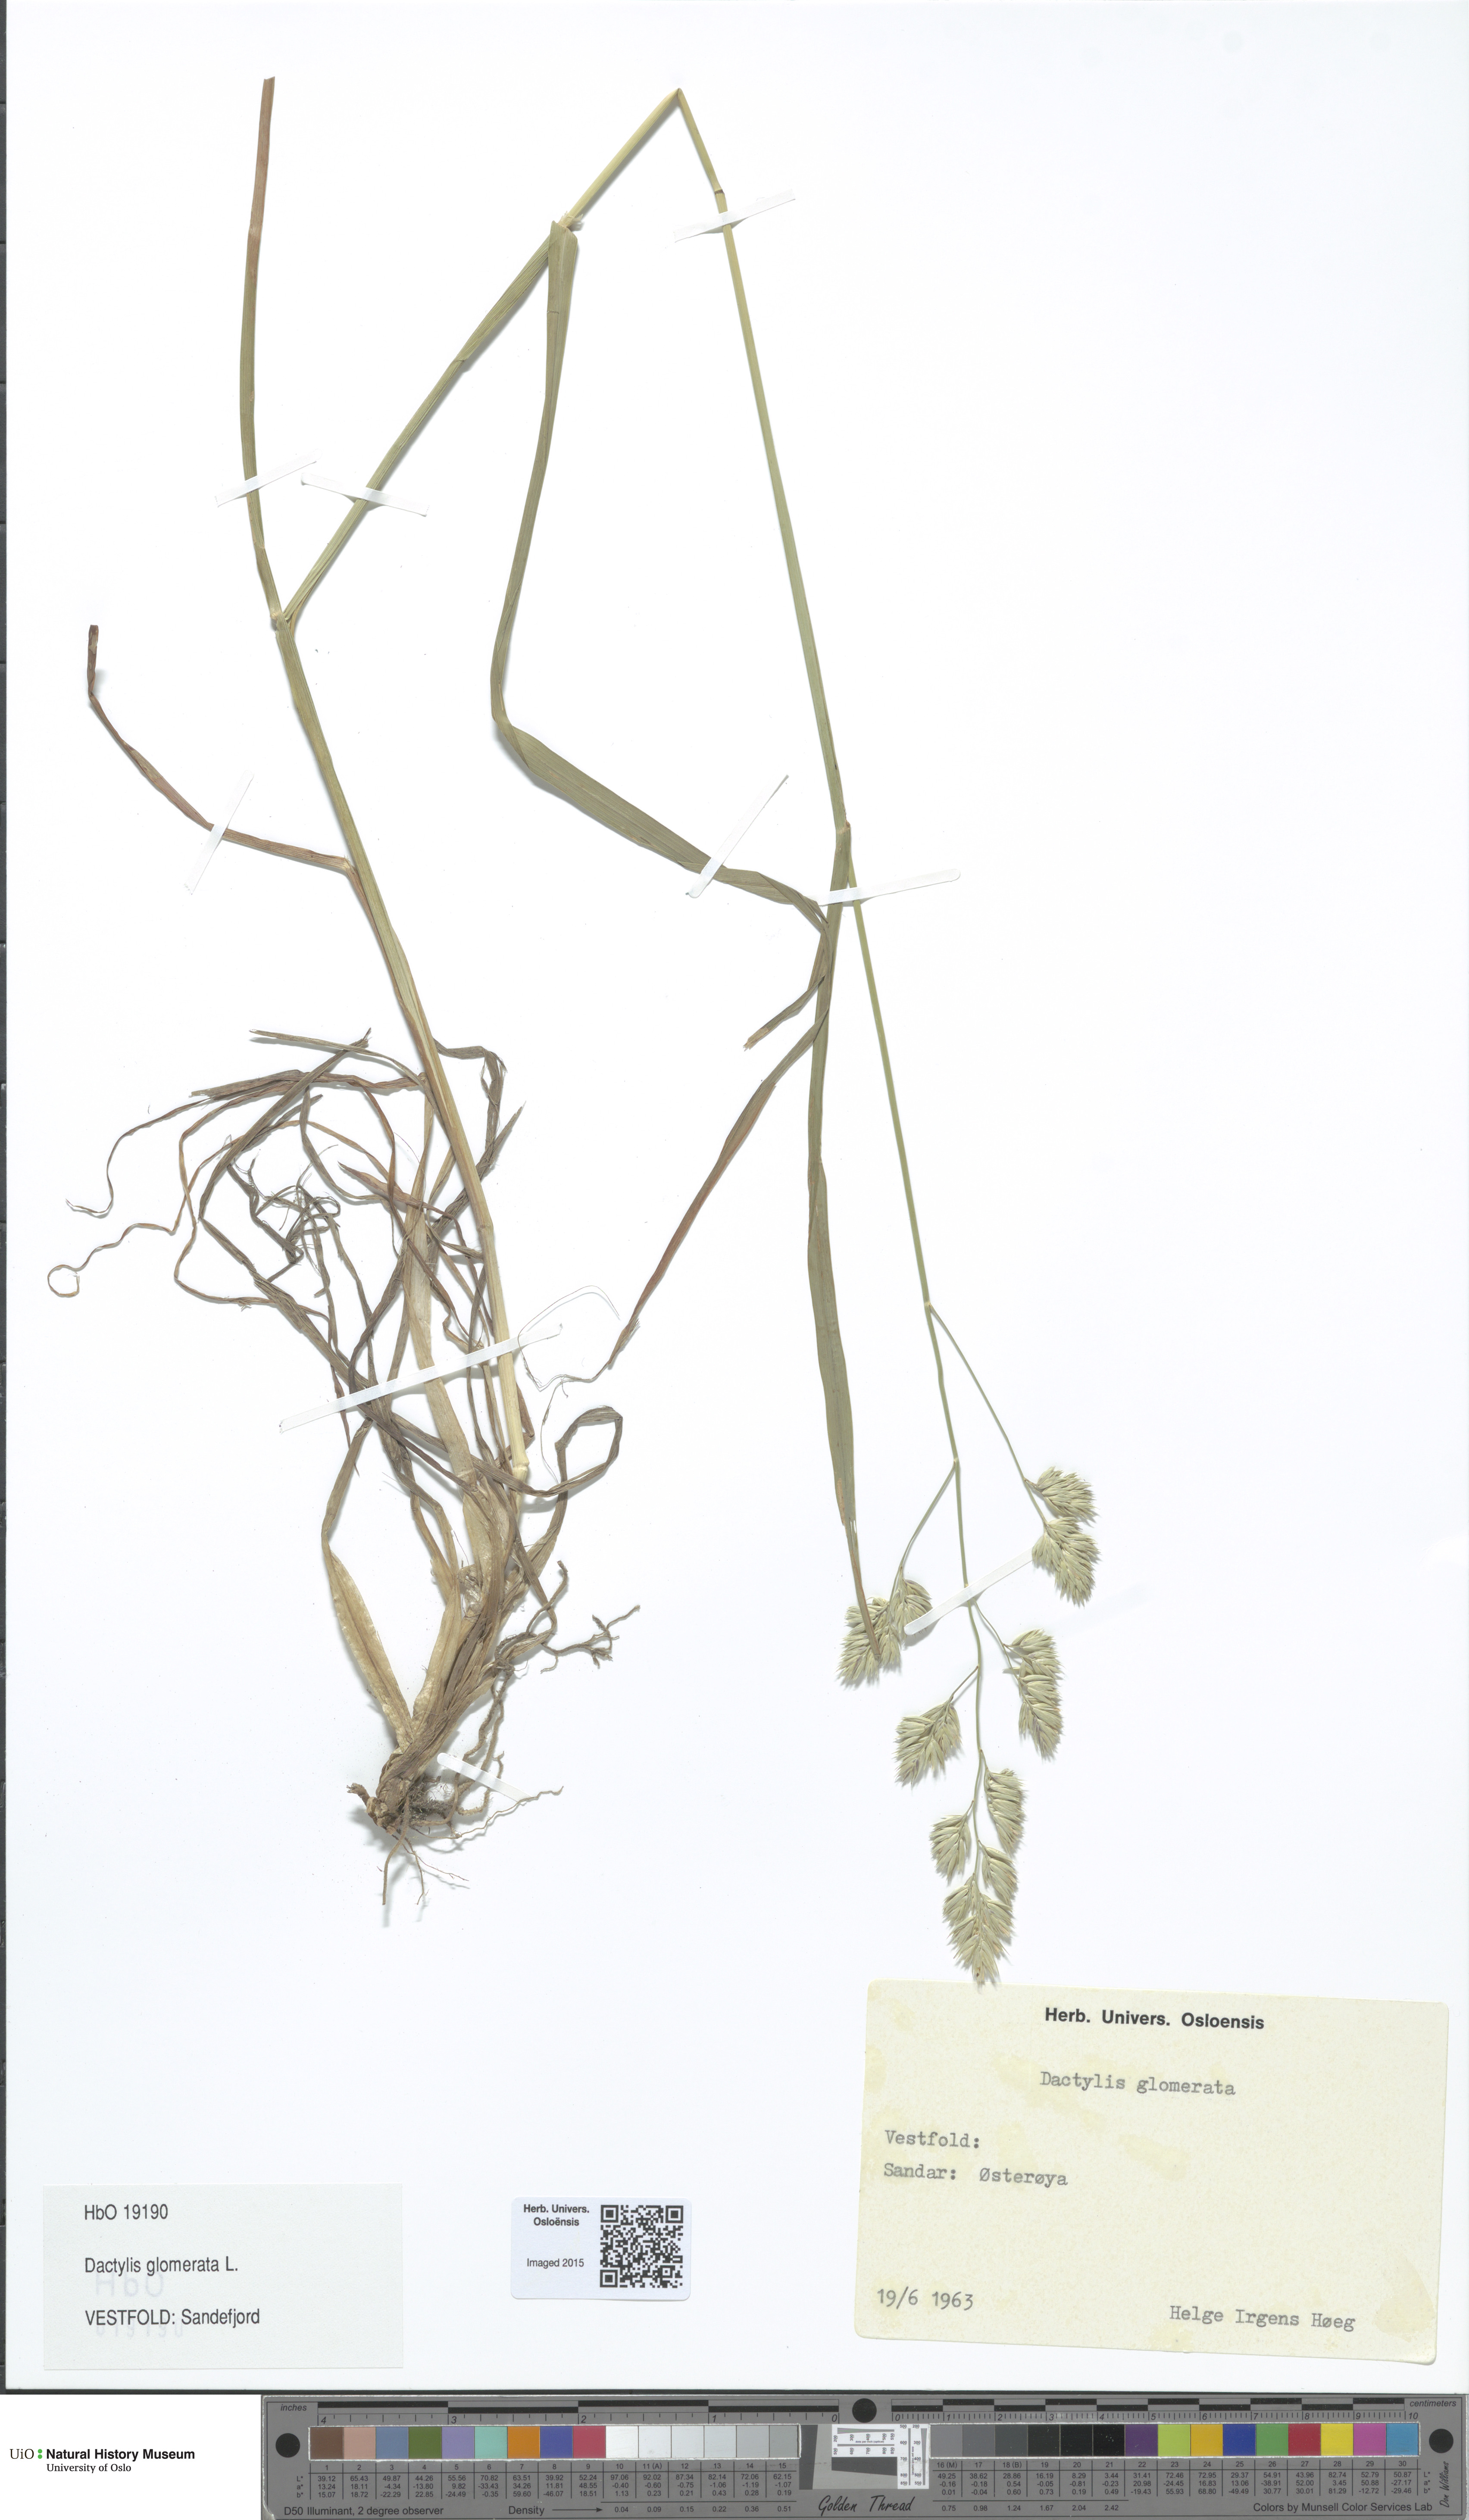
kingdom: Plantae
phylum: Tracheophyta
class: Liliopsida
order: Poales
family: Poaceae
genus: Dactylis
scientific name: Dactylis glomerata
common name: Orchardgrass
